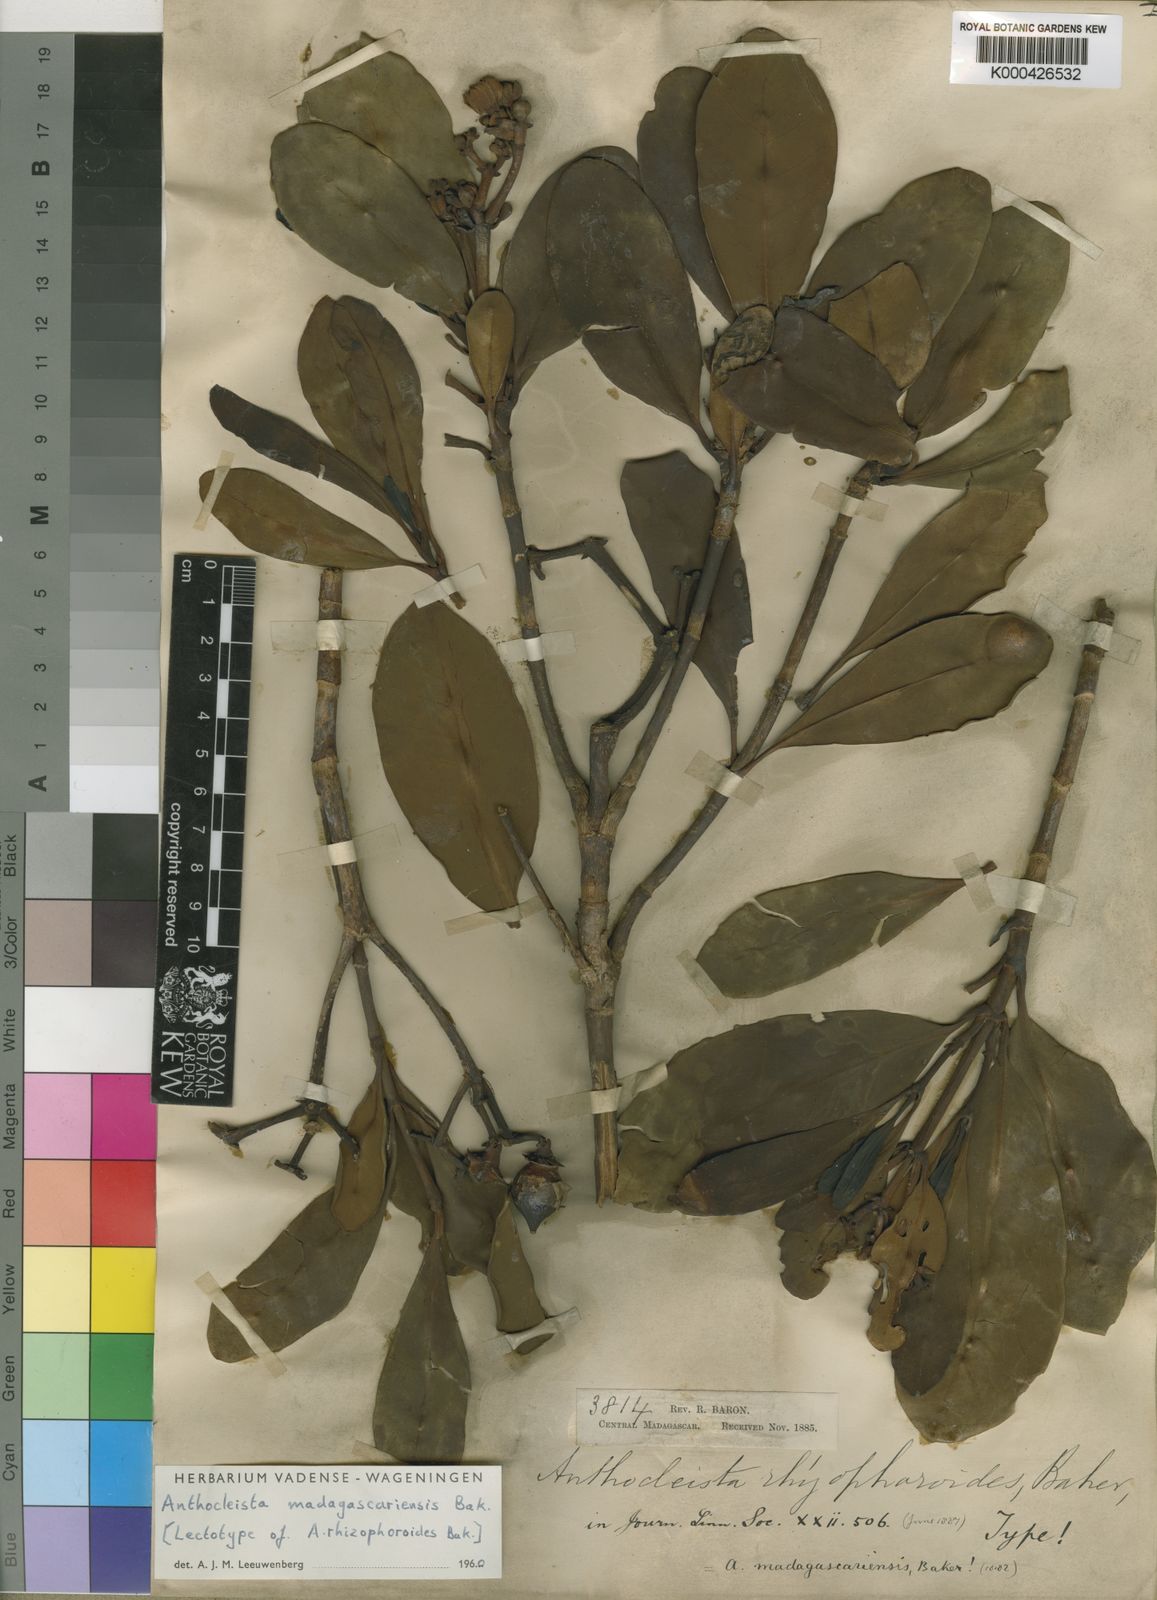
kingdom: Plantae
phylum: Tracheophyta
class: Magnoliopsida
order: Gentianales
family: Gentianaceae
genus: Anthocleista
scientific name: Anthocleista madagascariensis
